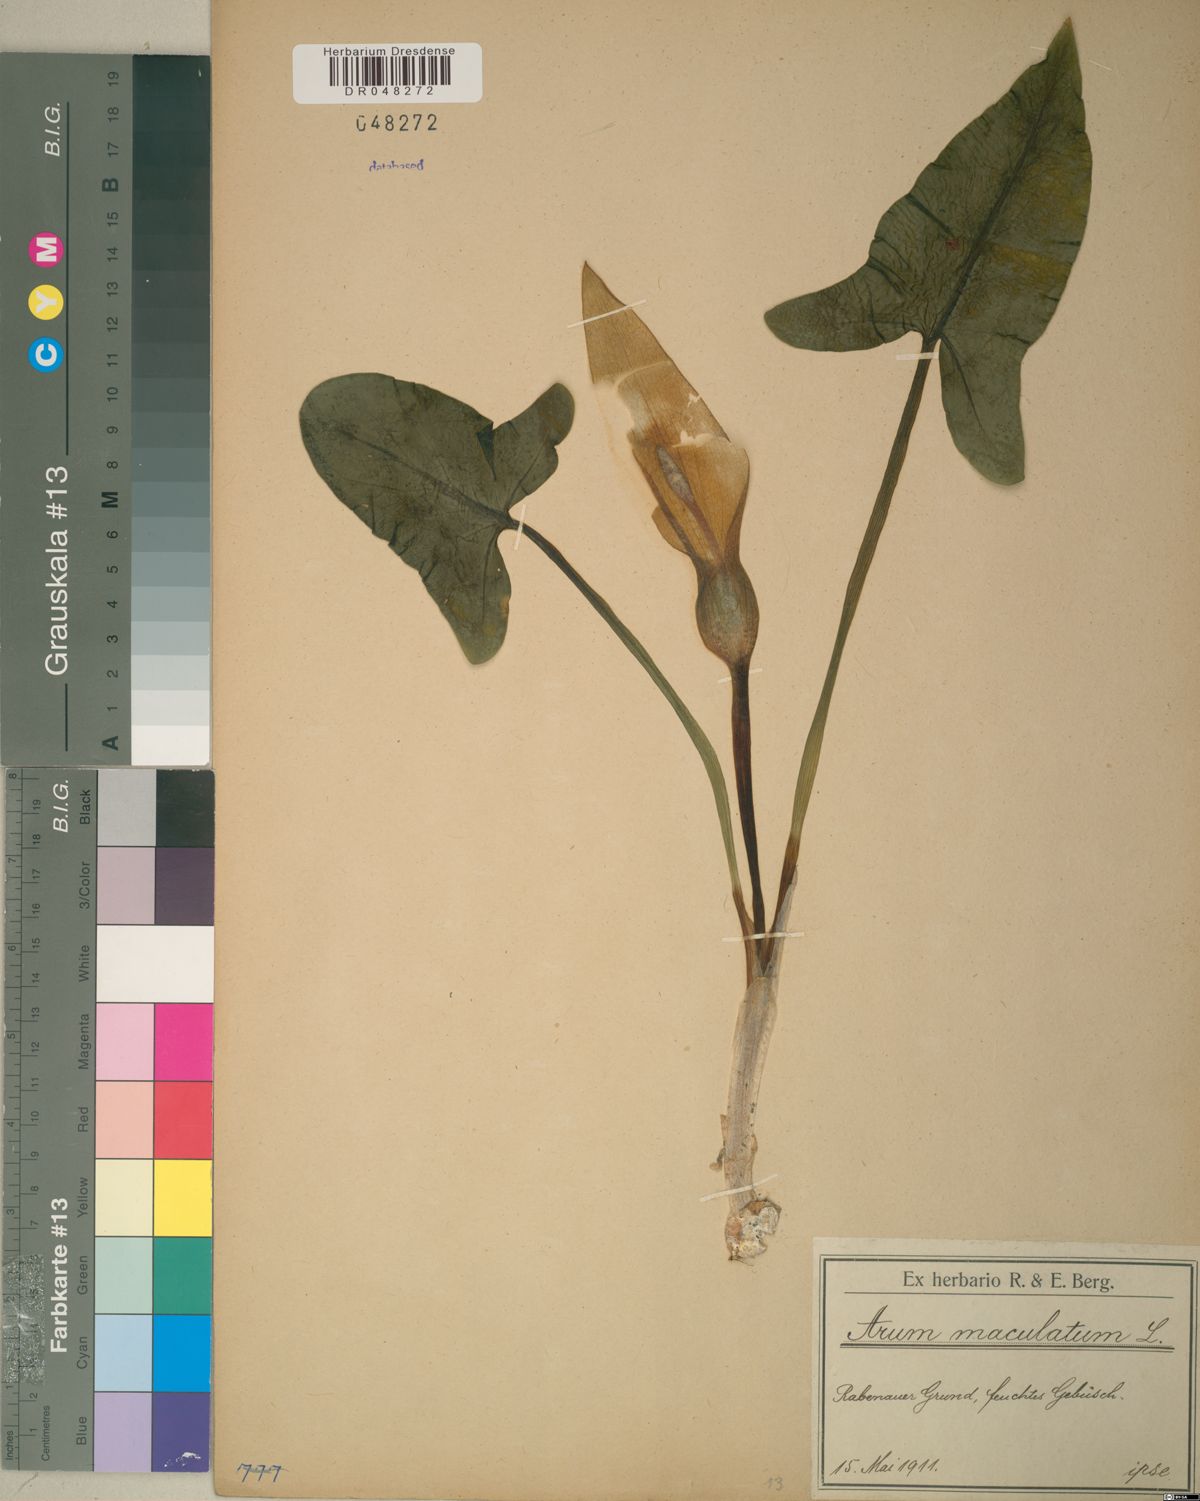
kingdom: Plantae
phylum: Tracheophyta
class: Liliopsida
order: Alismatales
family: Araceae
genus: Arum
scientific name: Arum maculatum
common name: Lords-and-ladies
